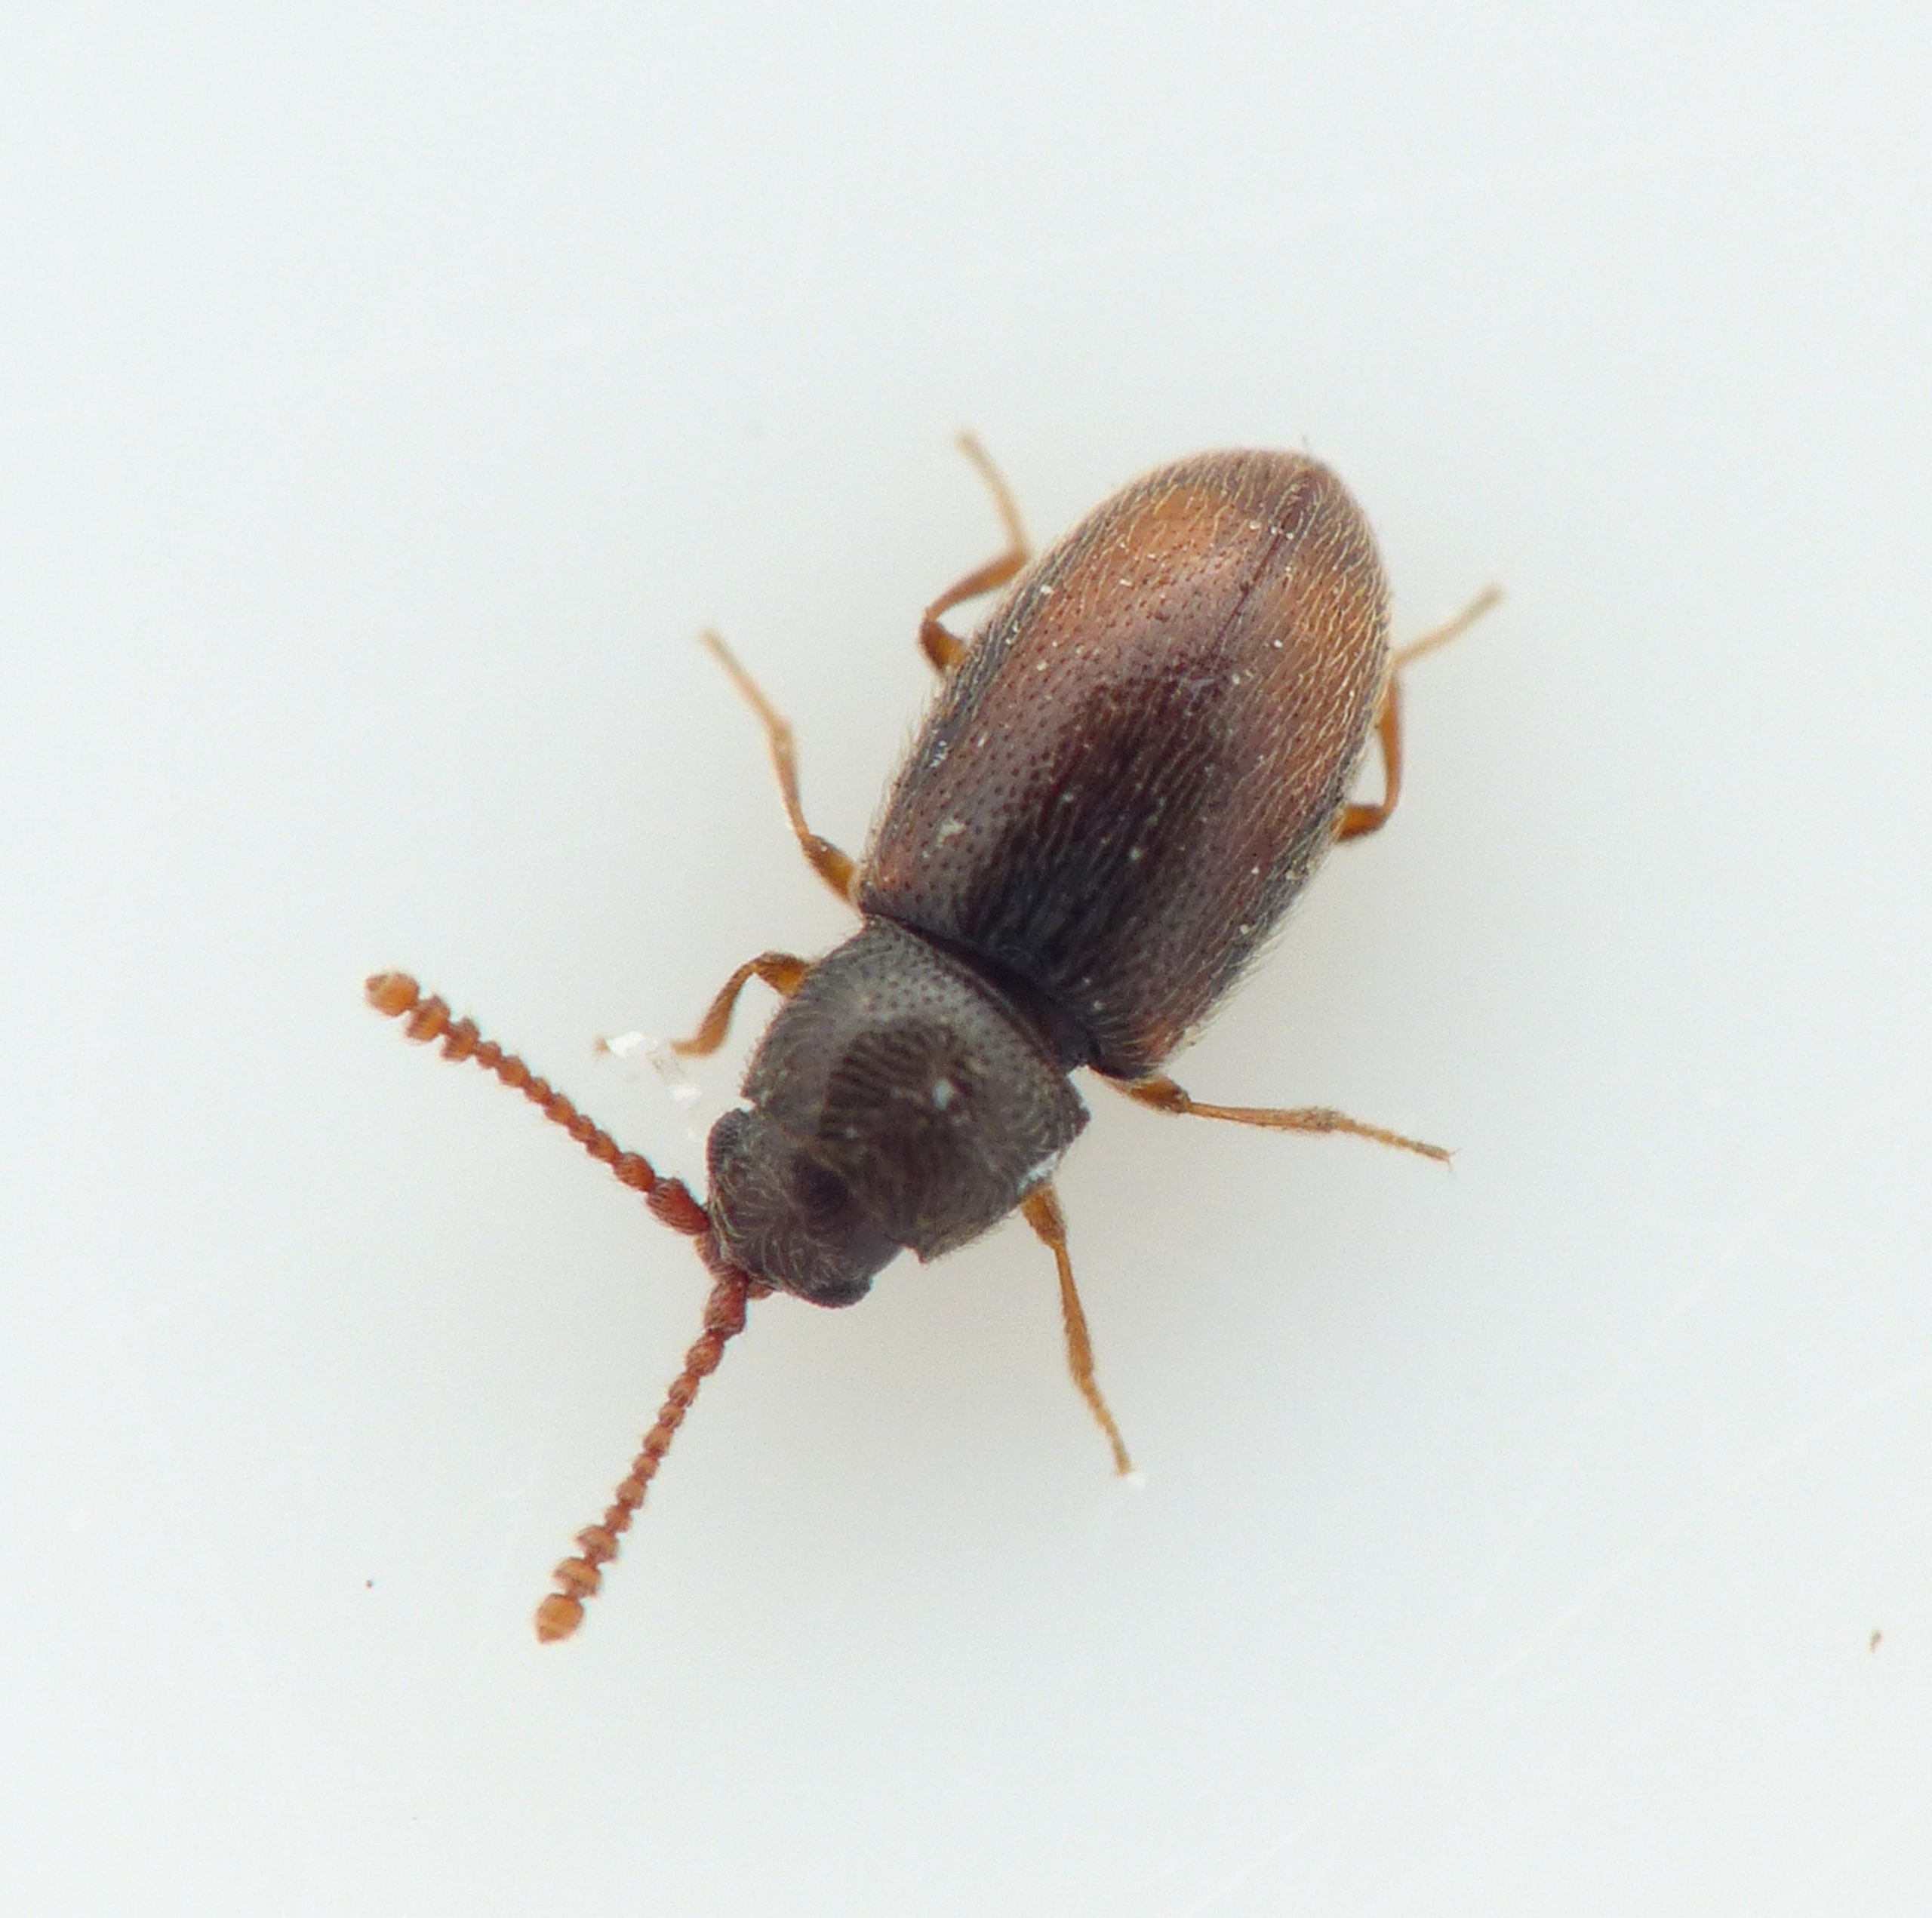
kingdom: Animalia
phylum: Arthropoda
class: Insecta
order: Coleoptera
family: Cryptophagidae
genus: Atomaria
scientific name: Atomaria punctithorax
